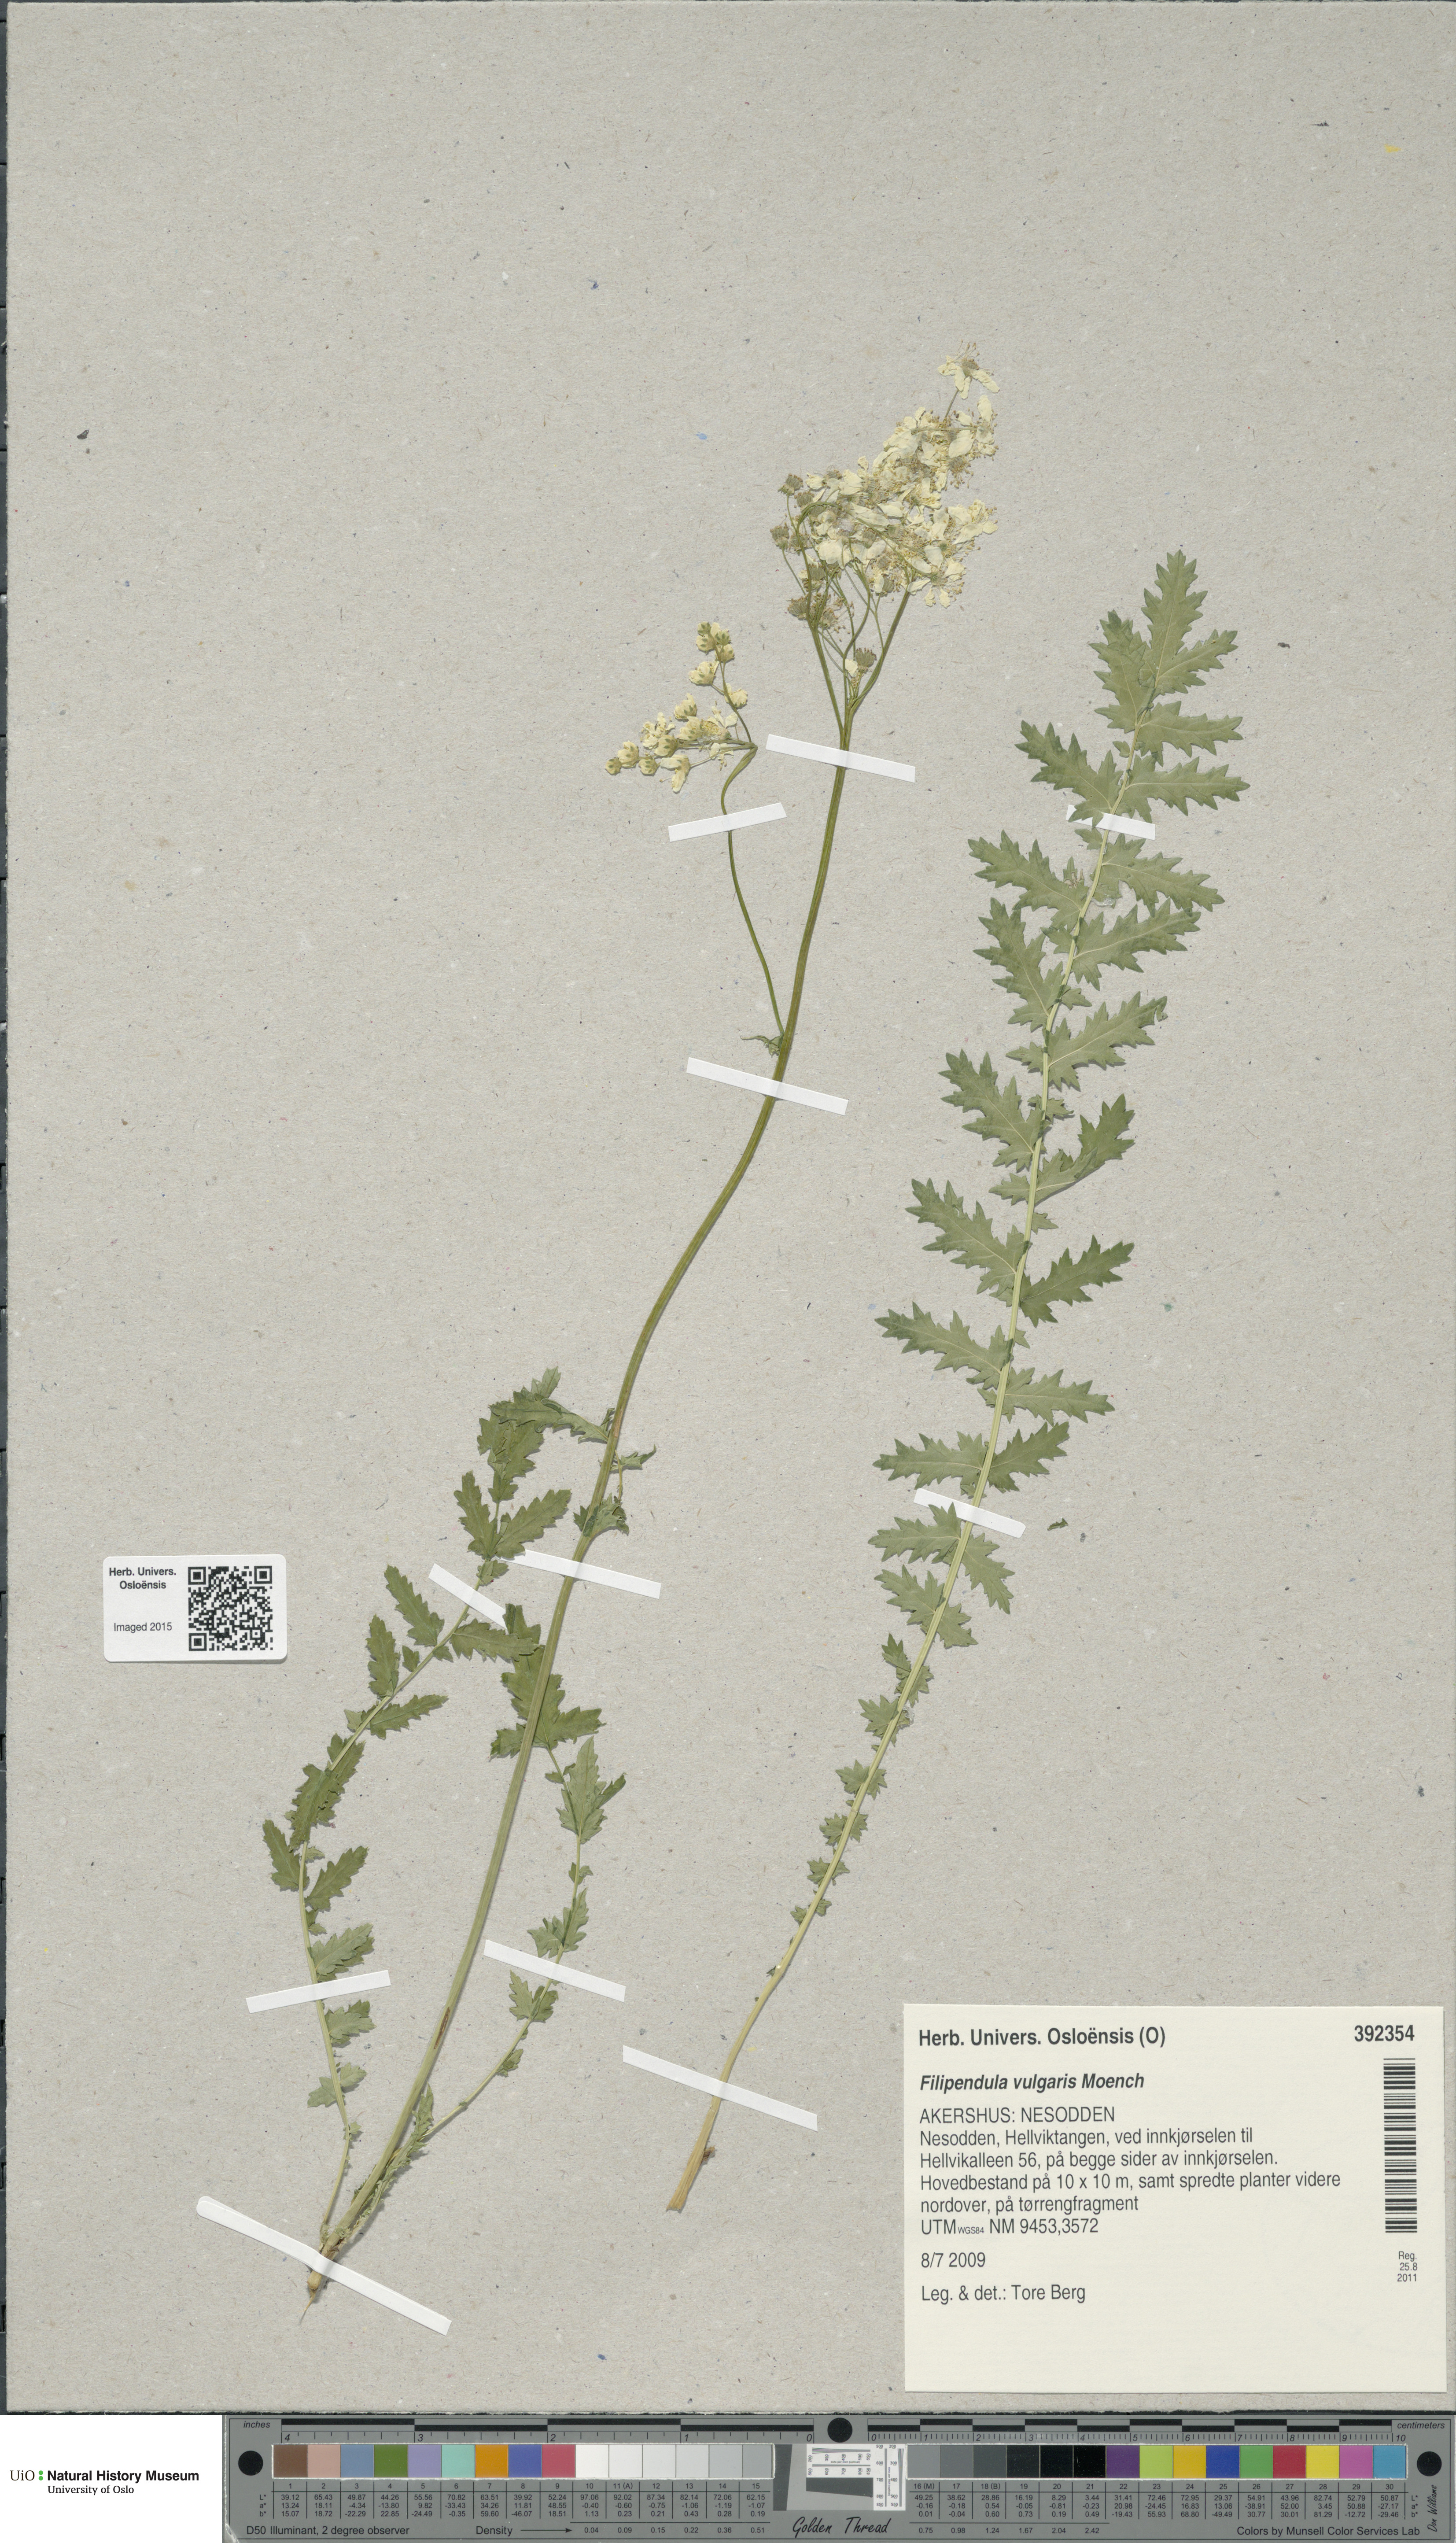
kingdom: Plantae
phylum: Tracheophyta
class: Magnoliopsida
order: Rosales
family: Rosaceae
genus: Filipendula
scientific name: Filipendula vulgaris
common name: Dropwort
